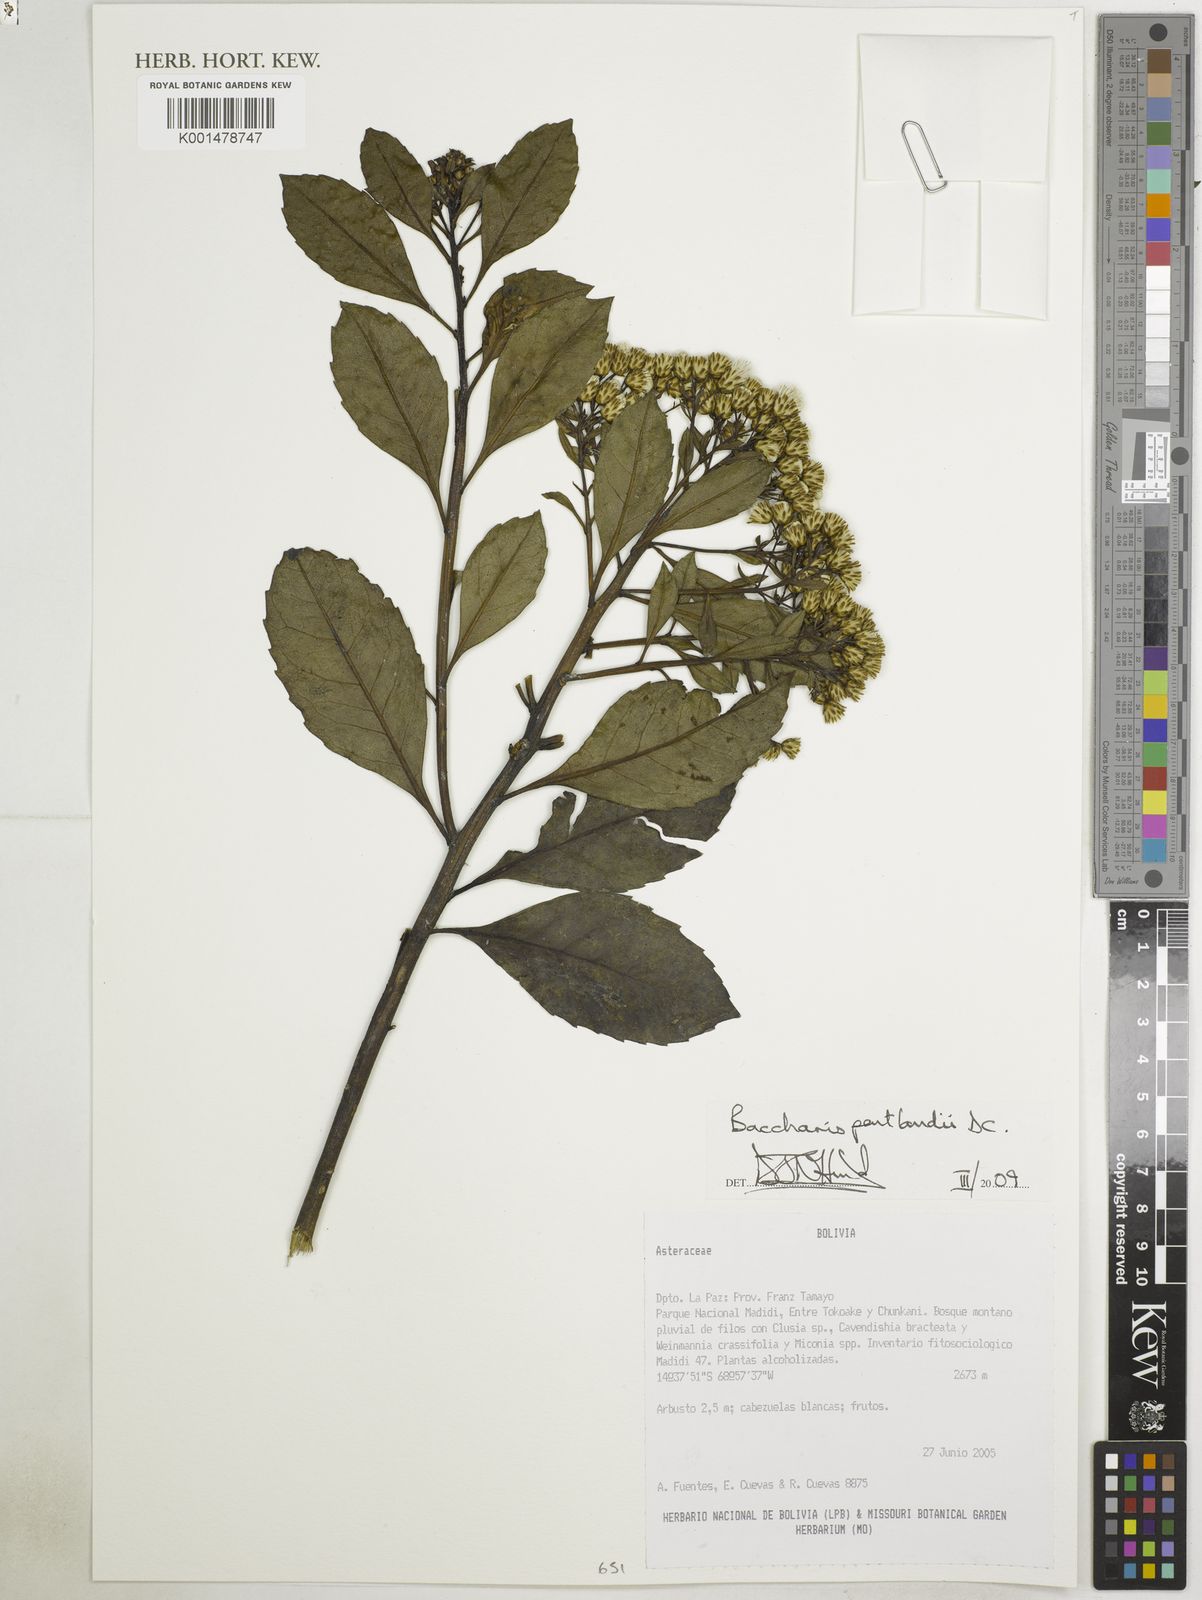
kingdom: Plantae
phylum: Tracheophyta
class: Magnoliopsida
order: Asterales
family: Asteraceae
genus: Baccharis
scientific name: Baccharis pentlandii
